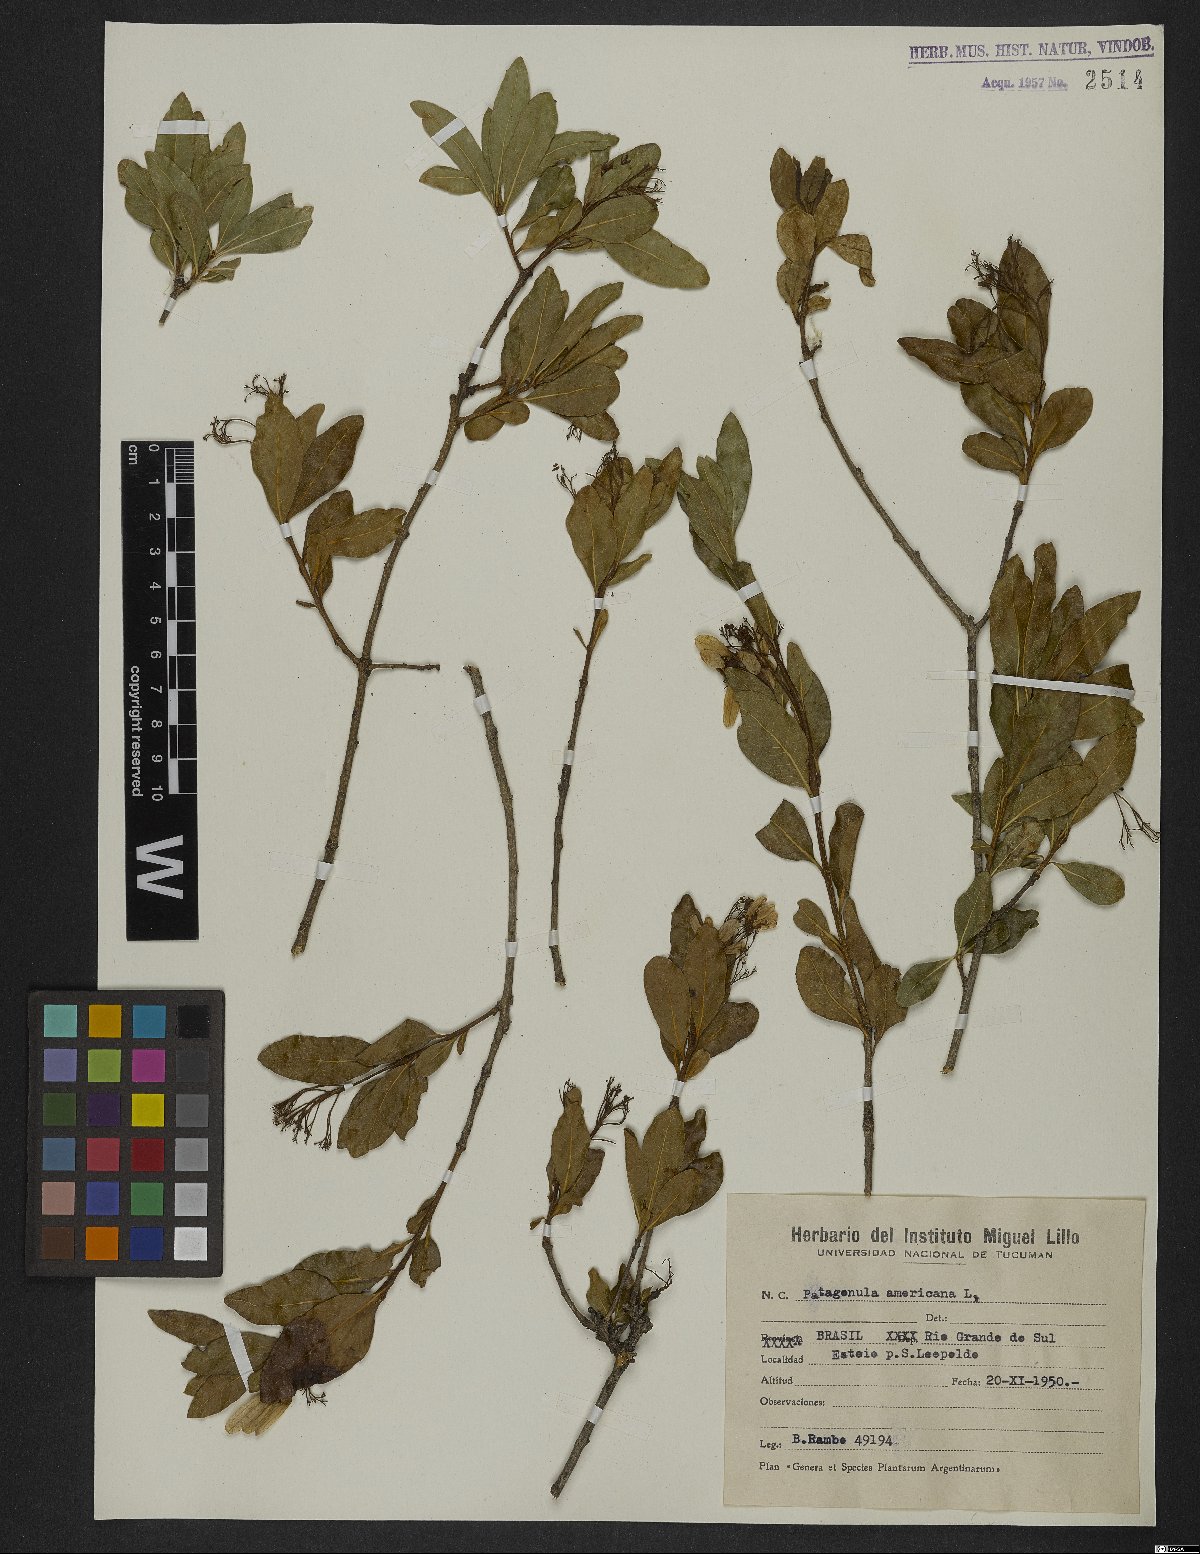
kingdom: Plantae
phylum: Tracheophyta
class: Magnoliopsida
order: Boraginales
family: Cordiaceae
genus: Cordia
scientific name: Cordia americana
